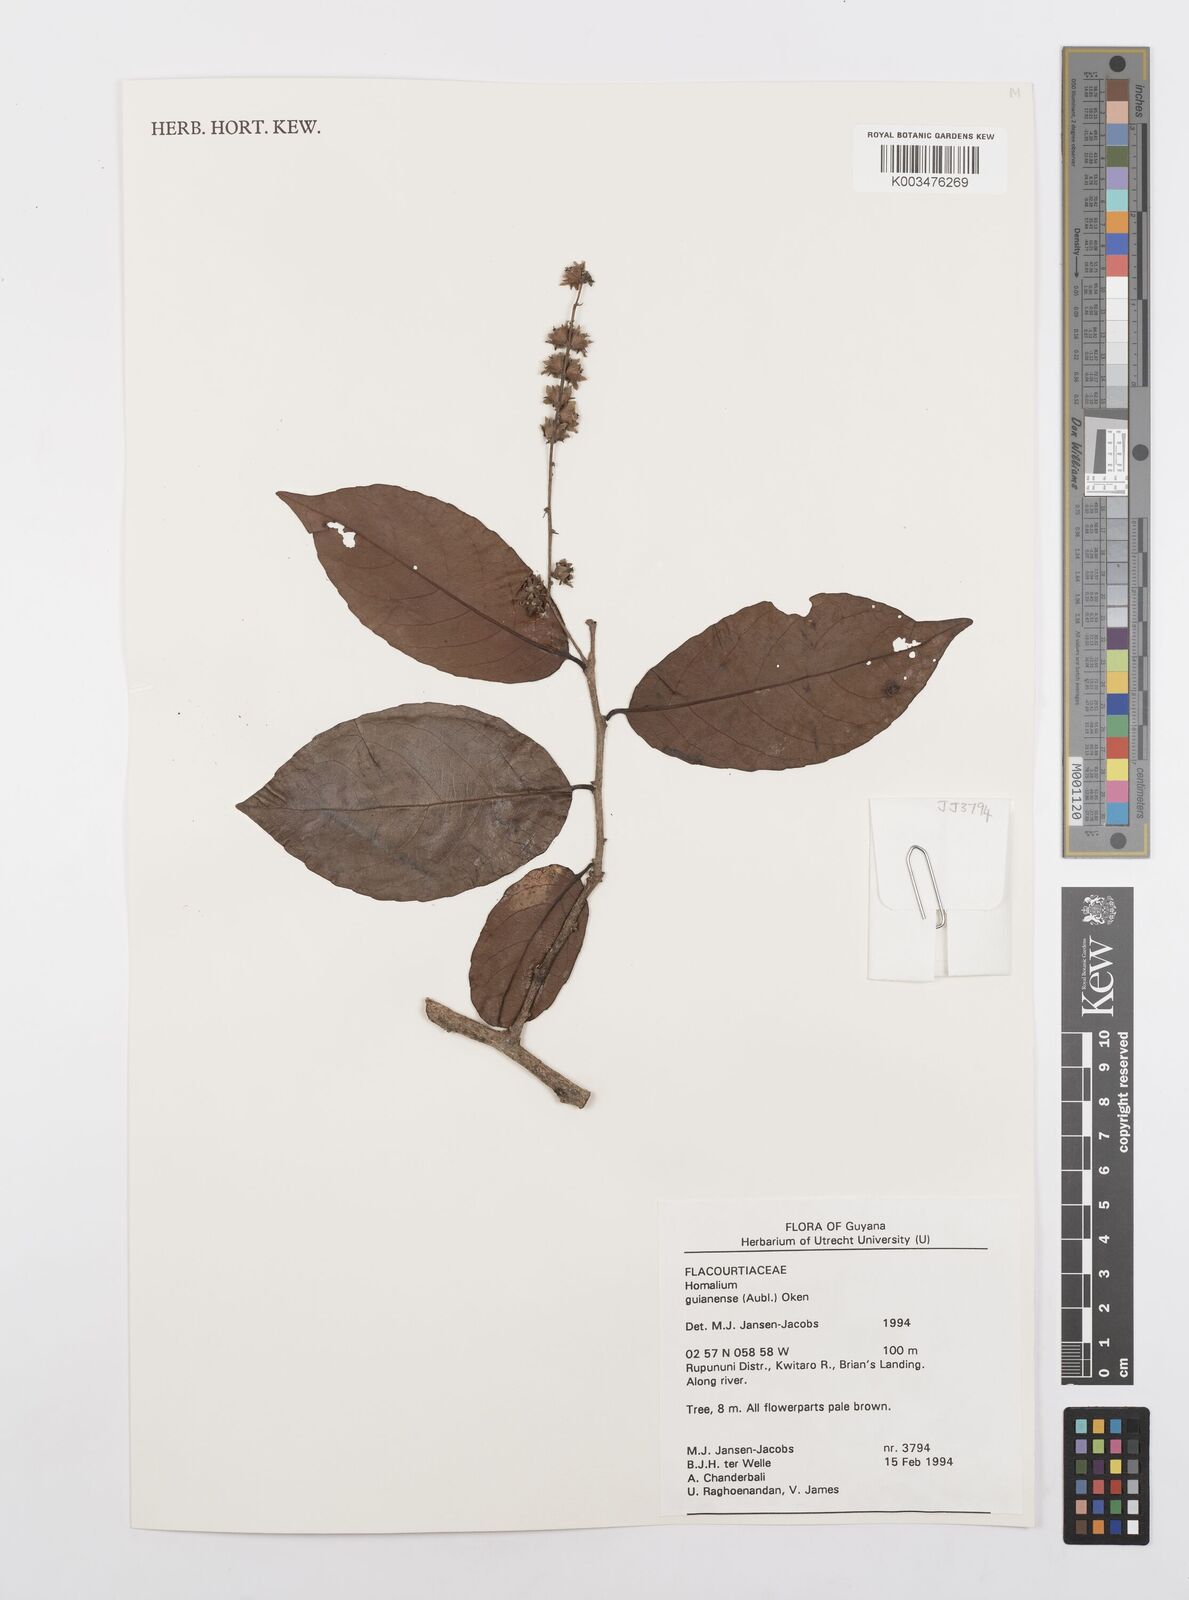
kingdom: Plantae
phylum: Tracheophyta
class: Magnoliopsida
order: Malpighiales
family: Salicaceae
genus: Homalium
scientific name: Homalium guianense
